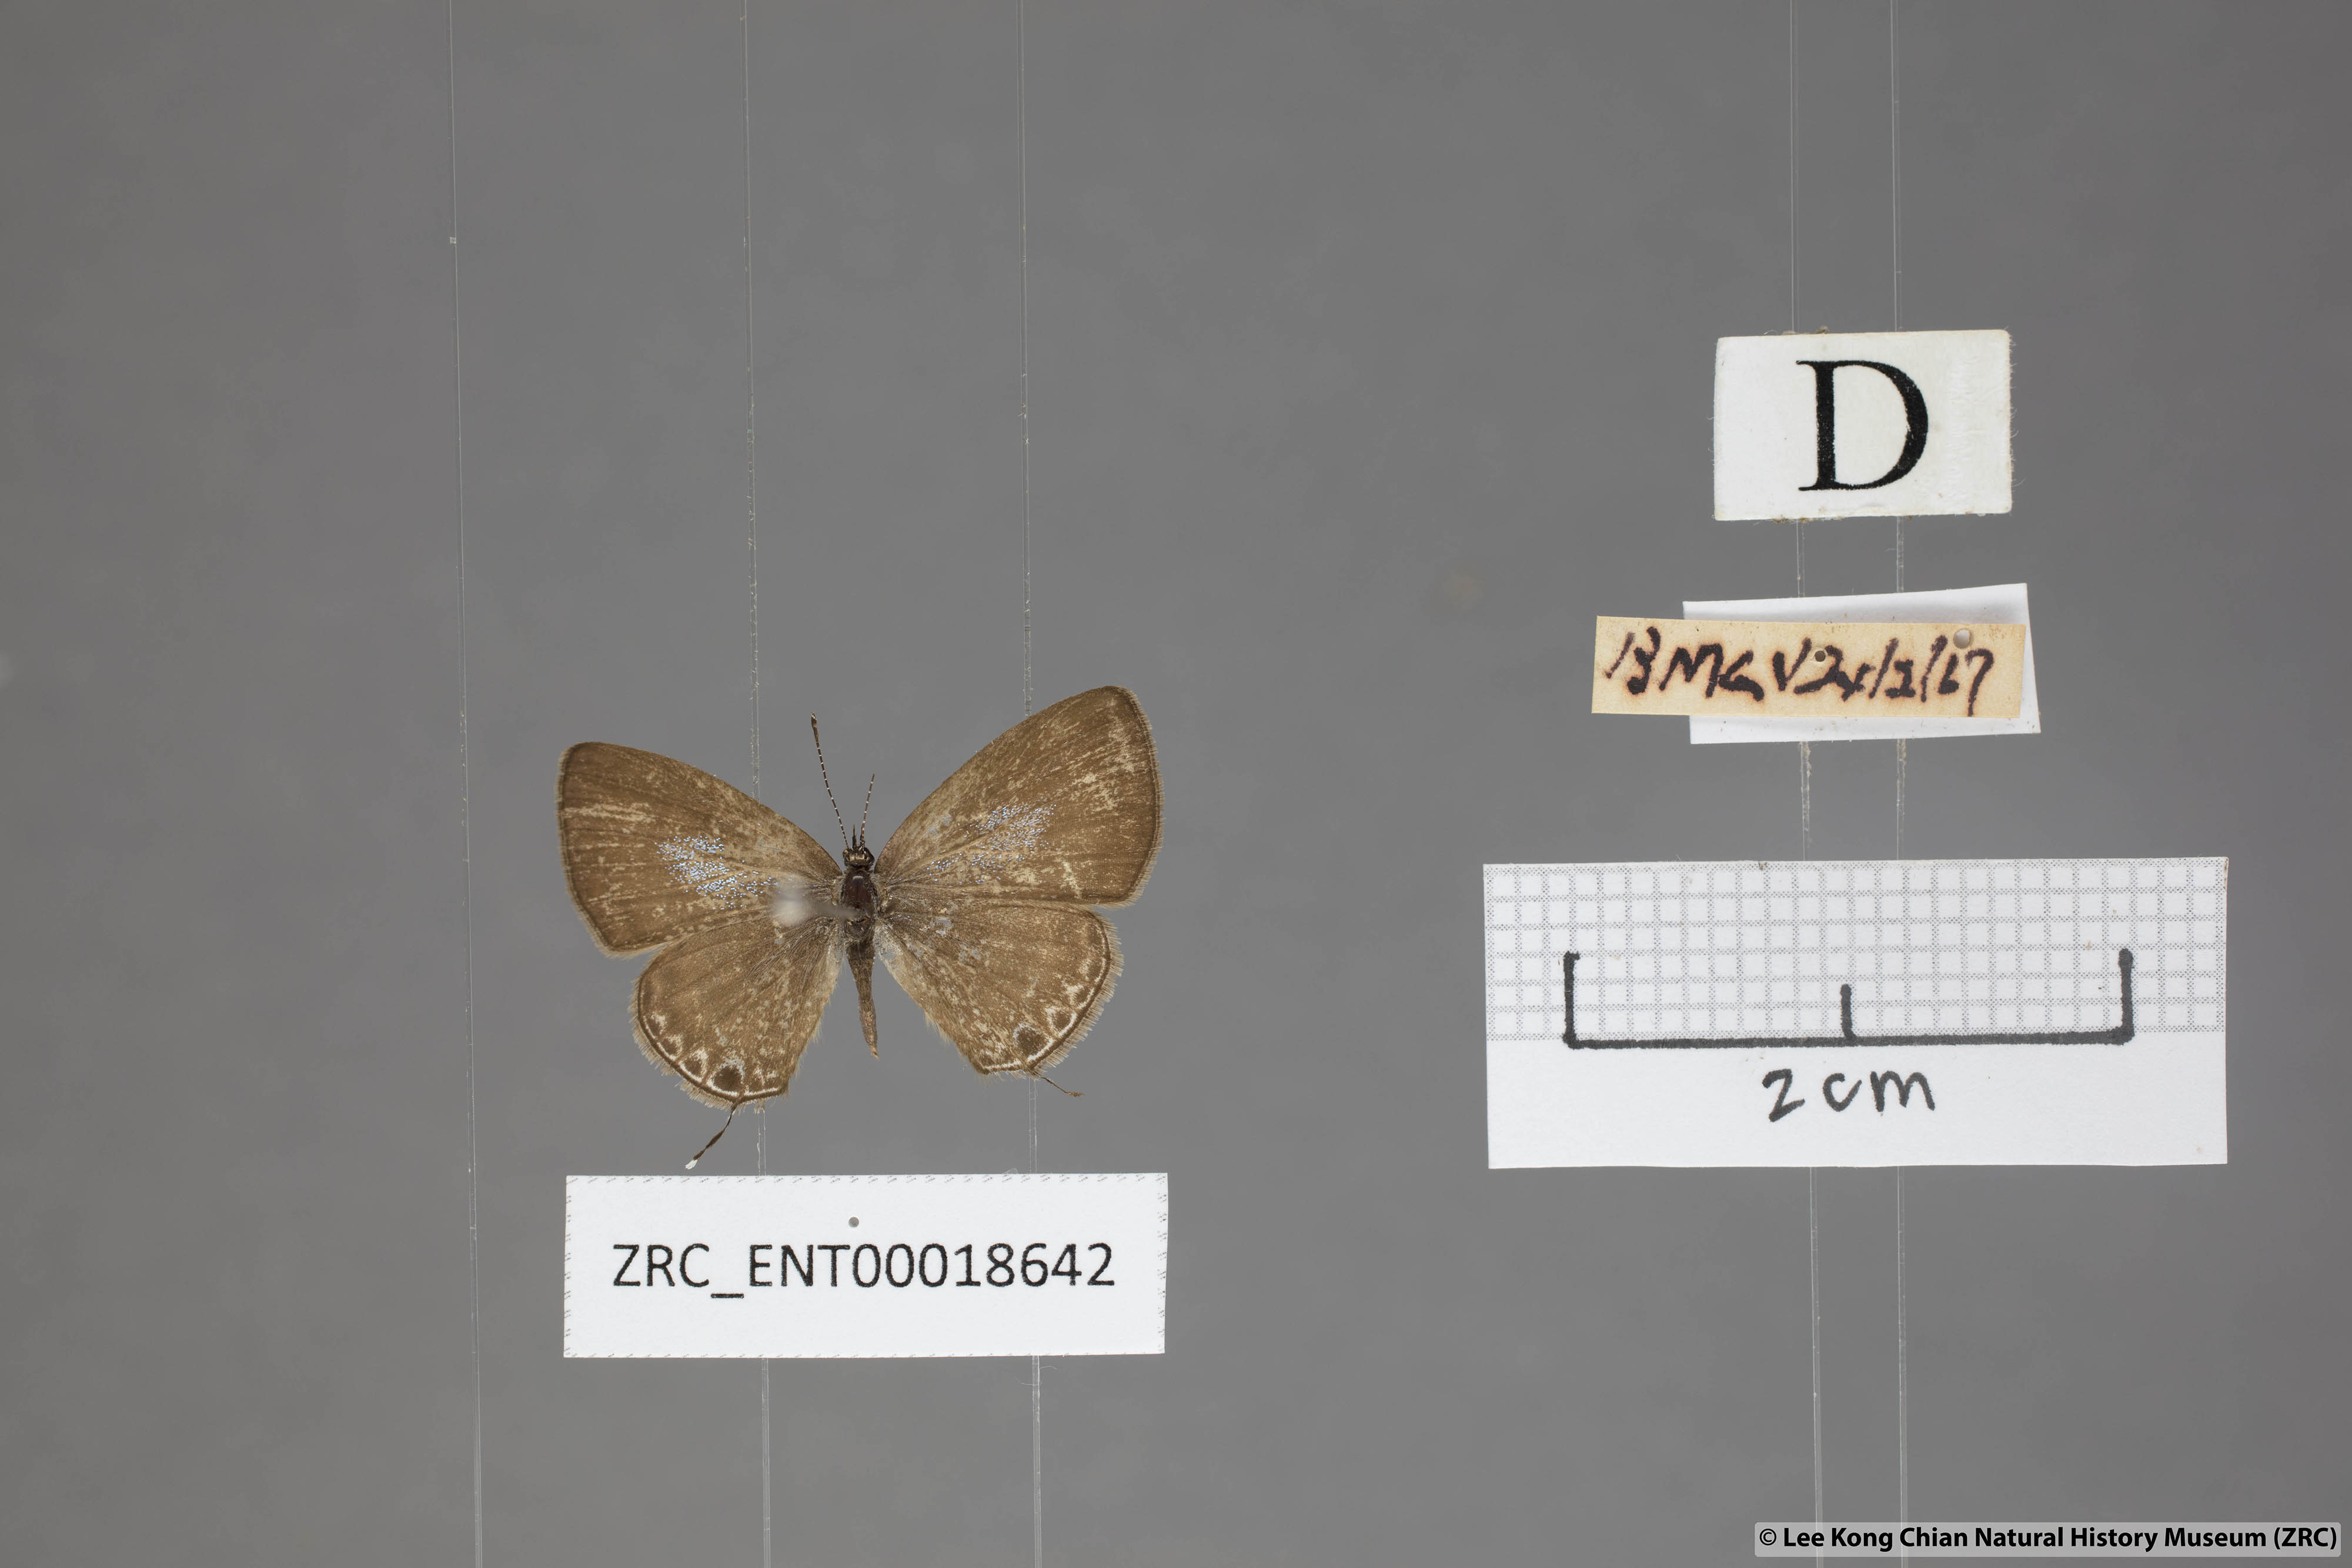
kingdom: Animalia
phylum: Arthropoda
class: Insecta
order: Lepidoptera
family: Lycaenidae
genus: Prosotas
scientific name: Prosotas nora
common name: Common line blue
